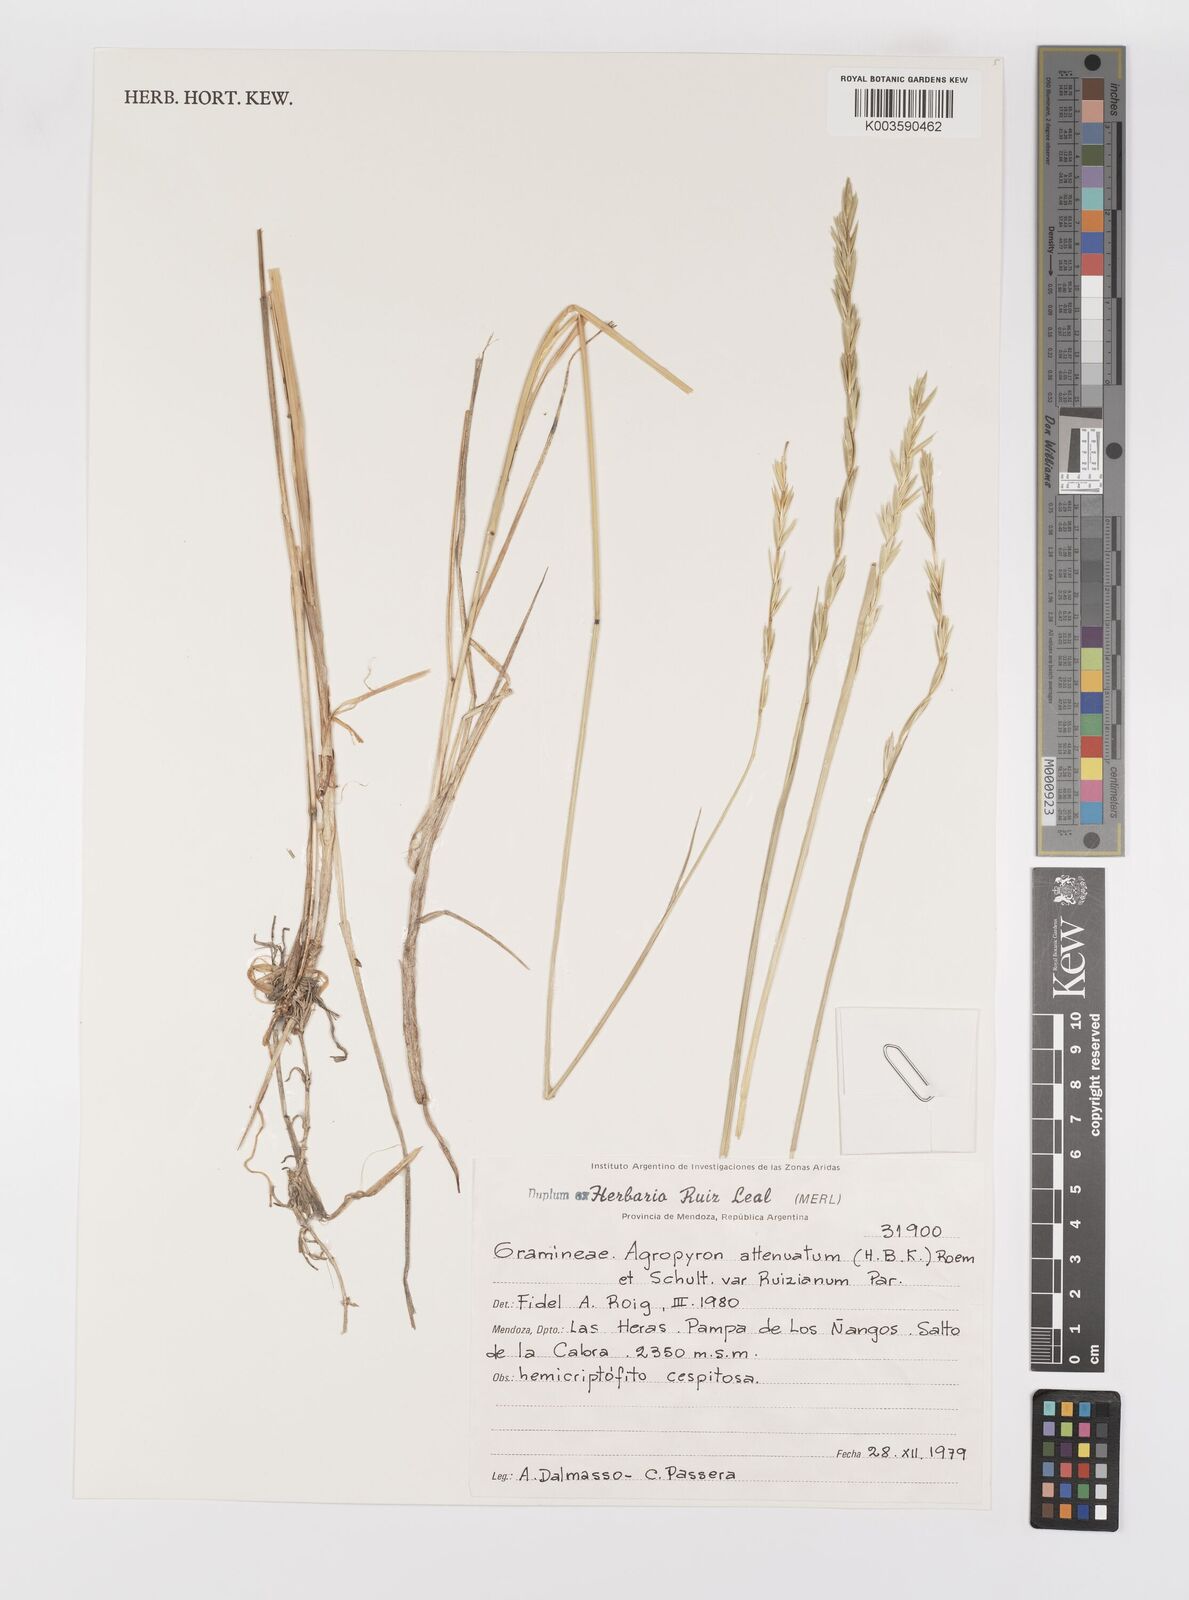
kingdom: Plantae
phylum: Tracheophyta
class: Liliopsida
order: Poales
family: Poaceae
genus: Elymus
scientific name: Elymus cordilleranus
